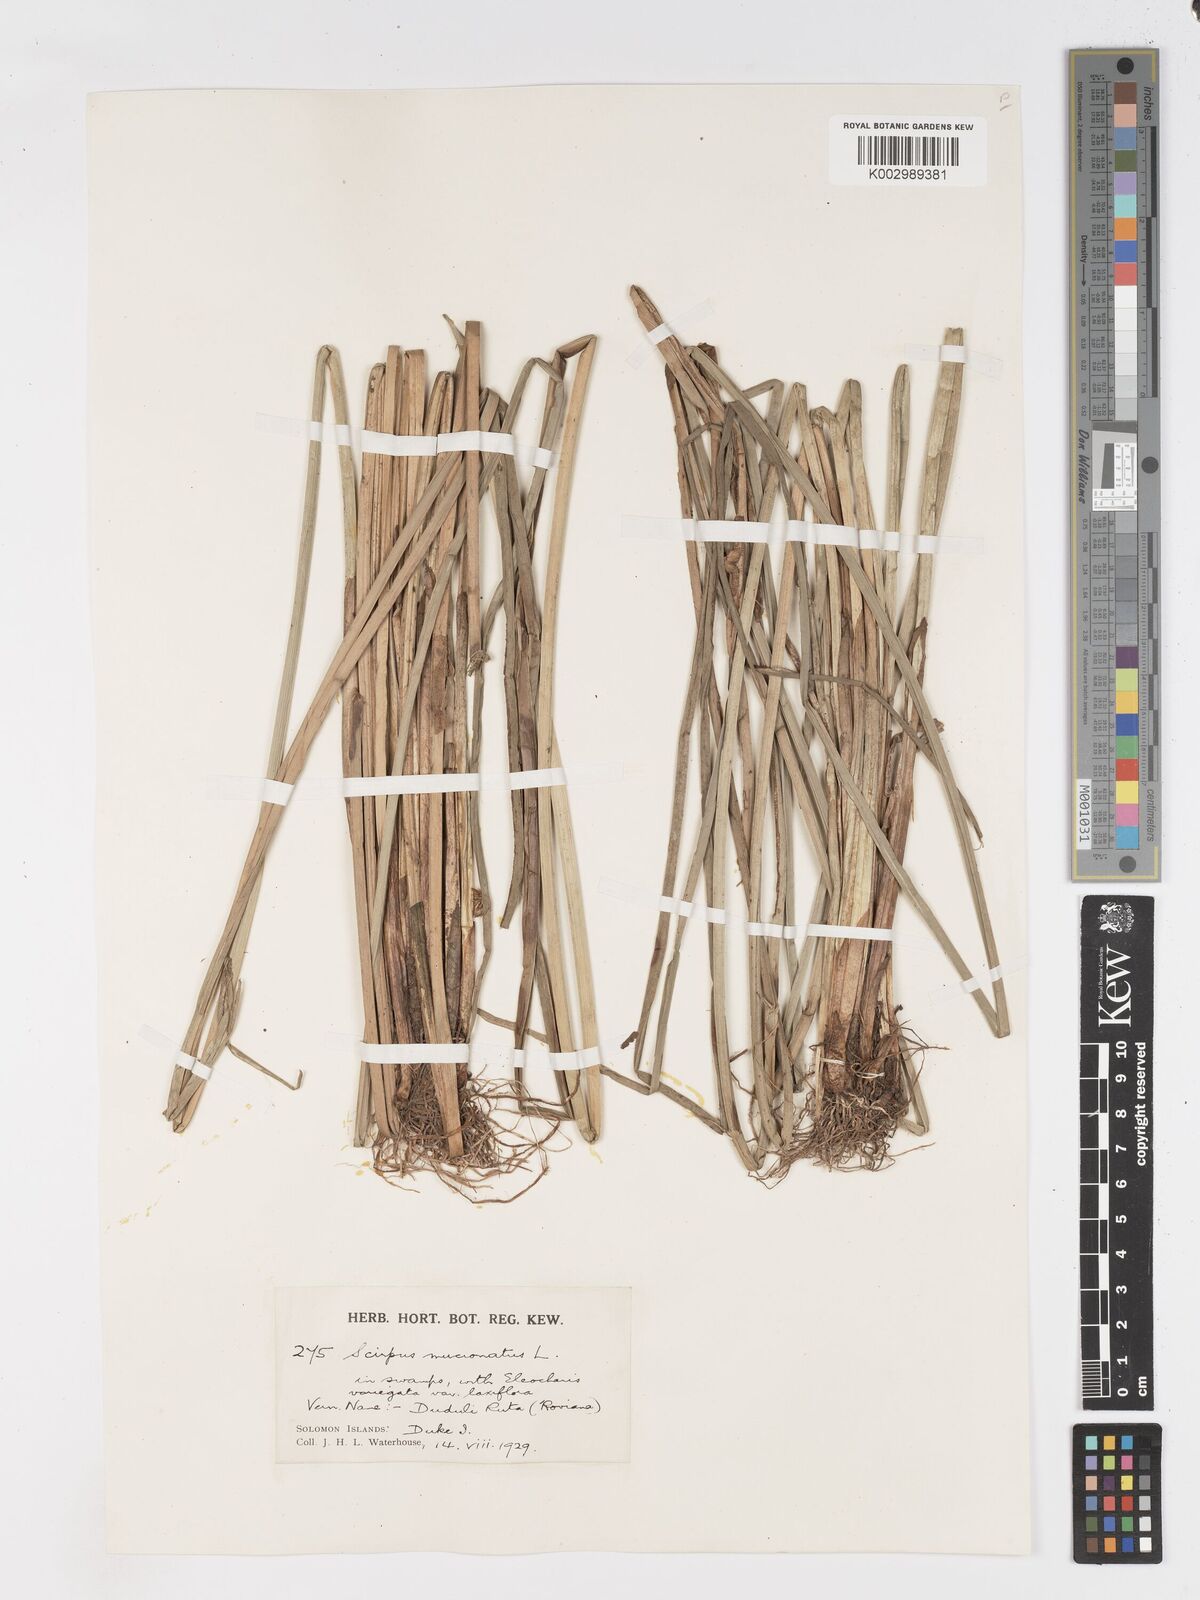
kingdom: Plantae
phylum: Tracheophyta
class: Liliopsida
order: Poales
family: Cyperaceae
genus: Schoenoplectiella
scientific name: Schoenoplectiella mucronata
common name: Bog bulrush
